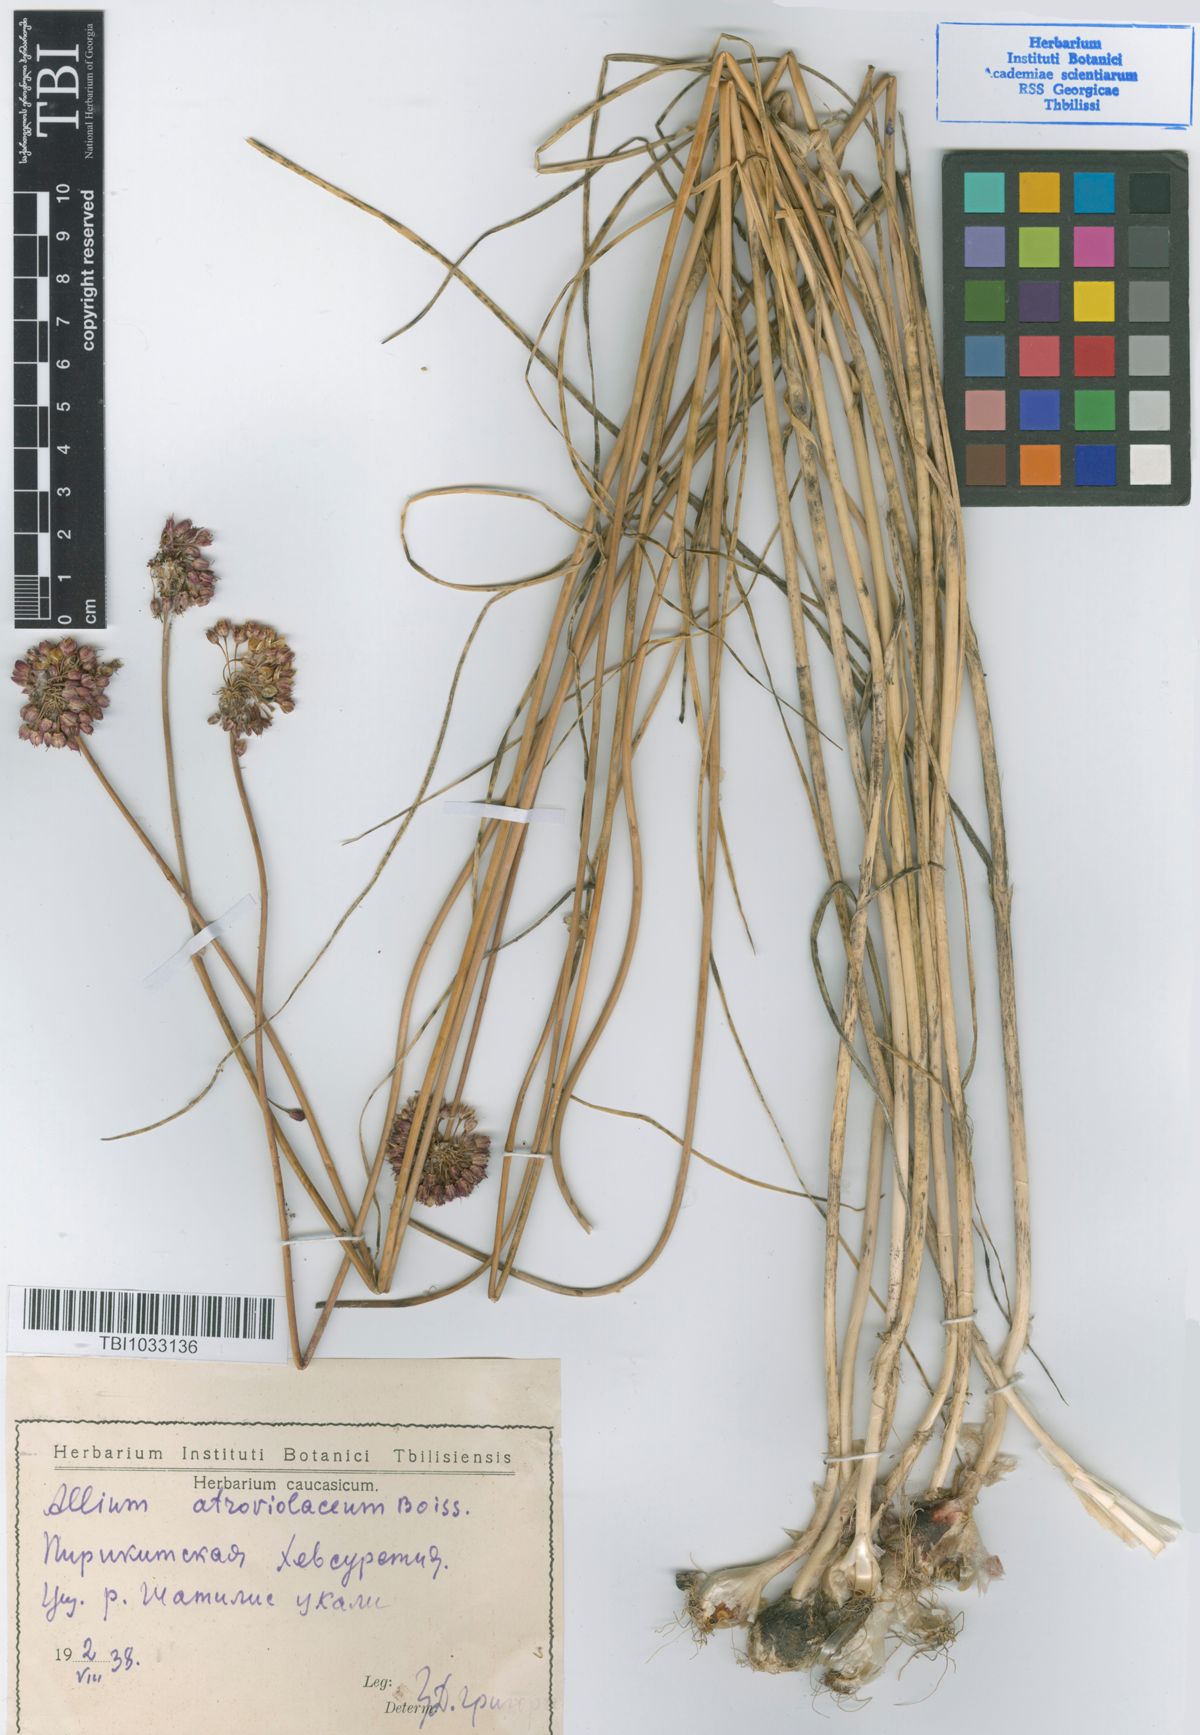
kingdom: Plantae
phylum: Tracheophyta
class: Liliopsida
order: Asparagales
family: Amaryllidaceae
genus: Allium
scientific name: Allium atroviolaceum
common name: Broadleaf wild leek
